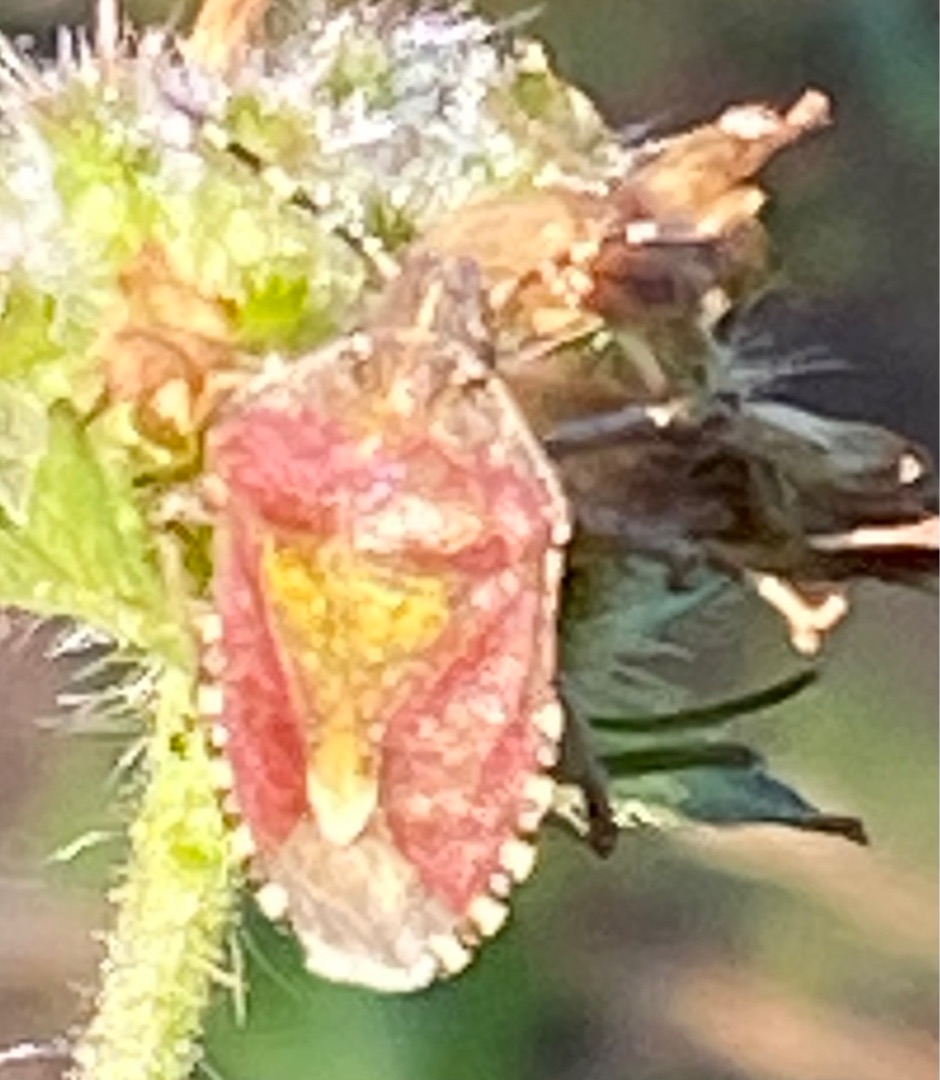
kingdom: Animalia
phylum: Arthropoda
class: Insecta
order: Hemiptera
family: Pentatomidae
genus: Dolycoris
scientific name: Dolycoris baccarum
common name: Almindelig bærtæge
